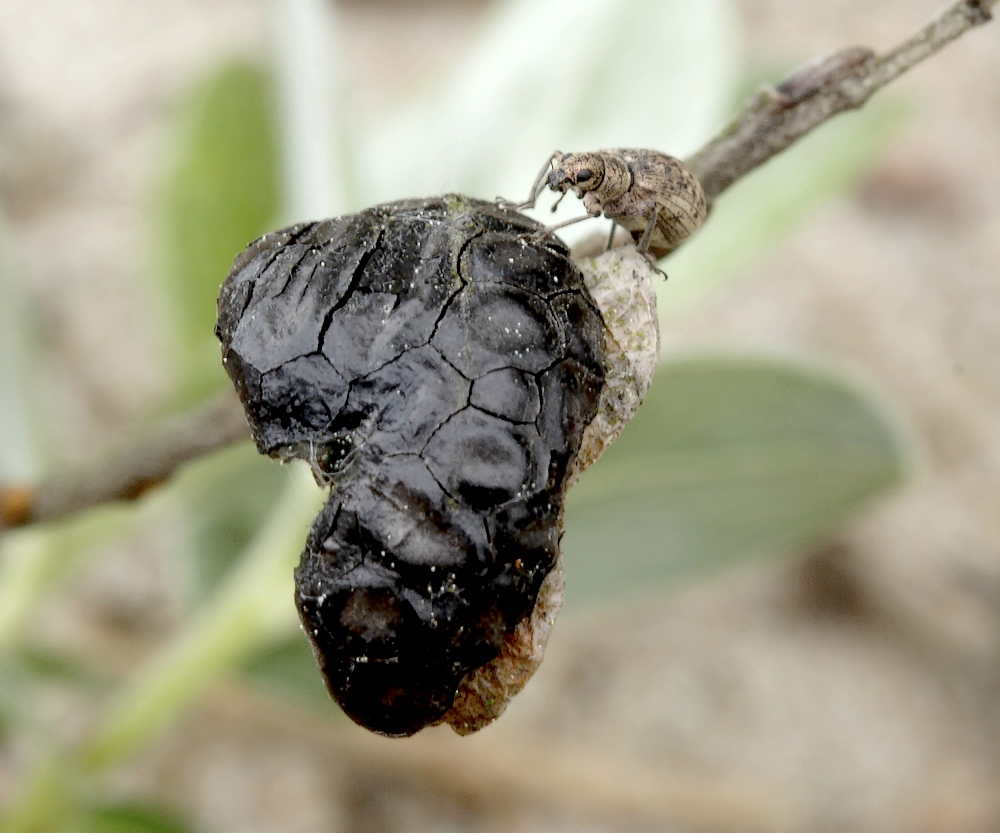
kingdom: Fungi
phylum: Ascomycota
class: Leotiomycetes
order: Rhytismatales
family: Rhytismataceae
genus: Rhytisma
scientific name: Rhytisma salicinum
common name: pile-rynkeplet
